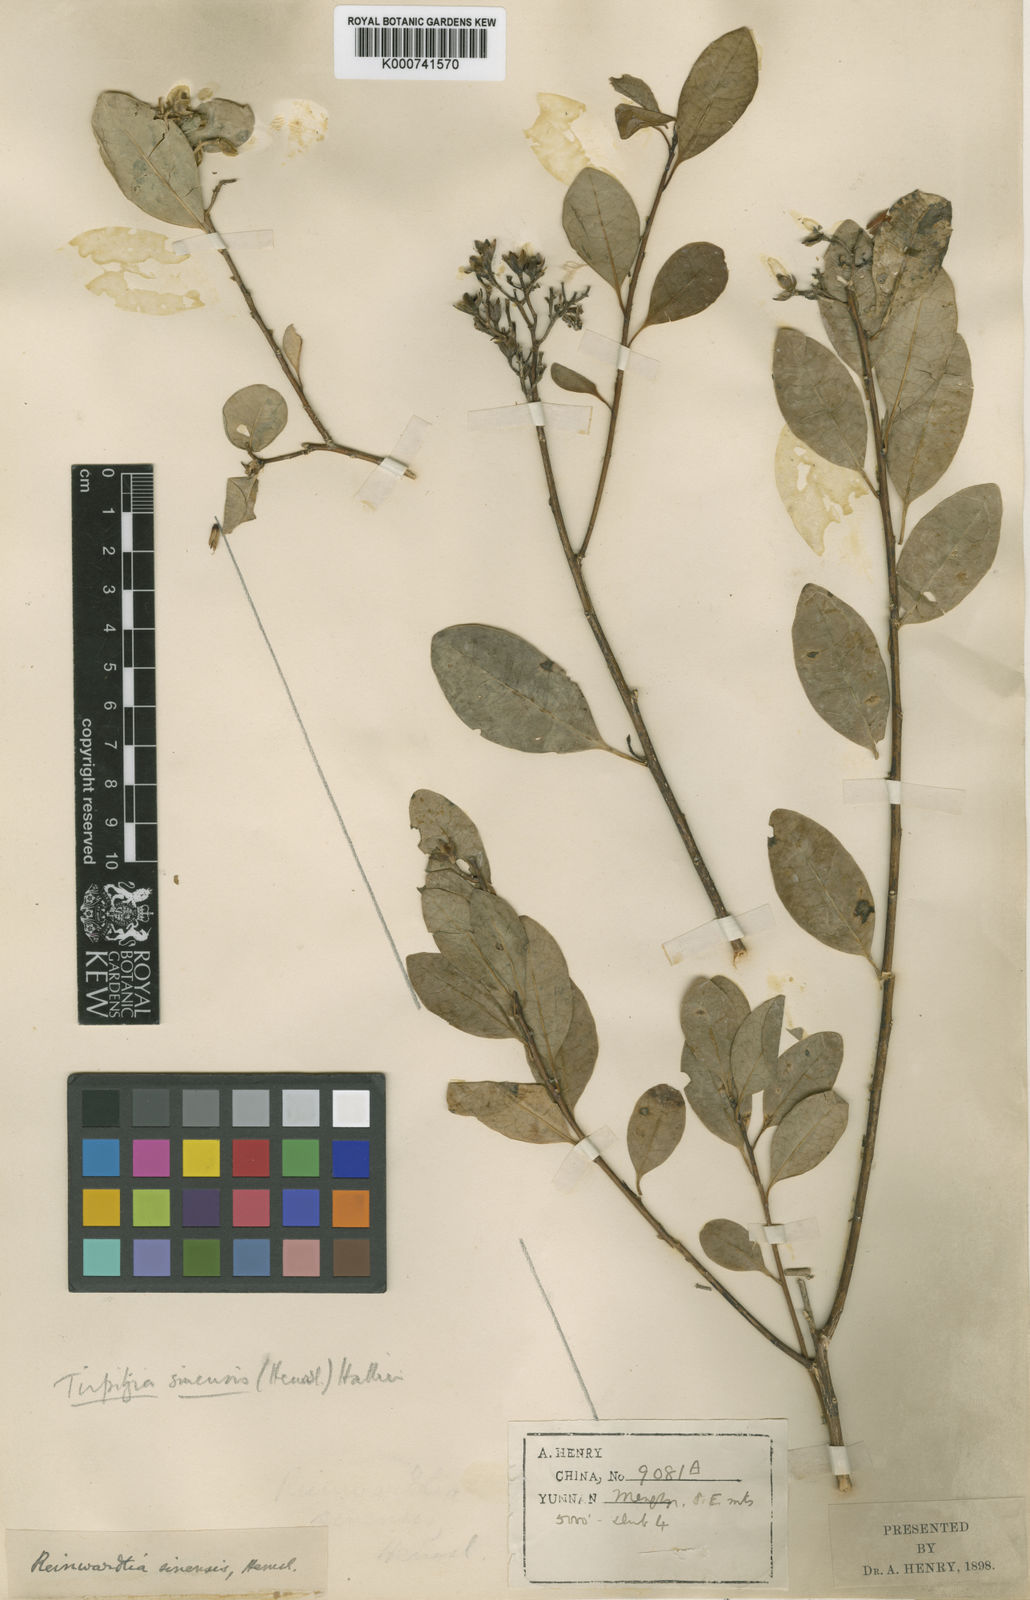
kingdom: Plantae
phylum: Tracheophyta
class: Magnoliopsida
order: Malpighiales
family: Linaceae
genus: Tirpitzia
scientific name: Tirpitzia sinensis
